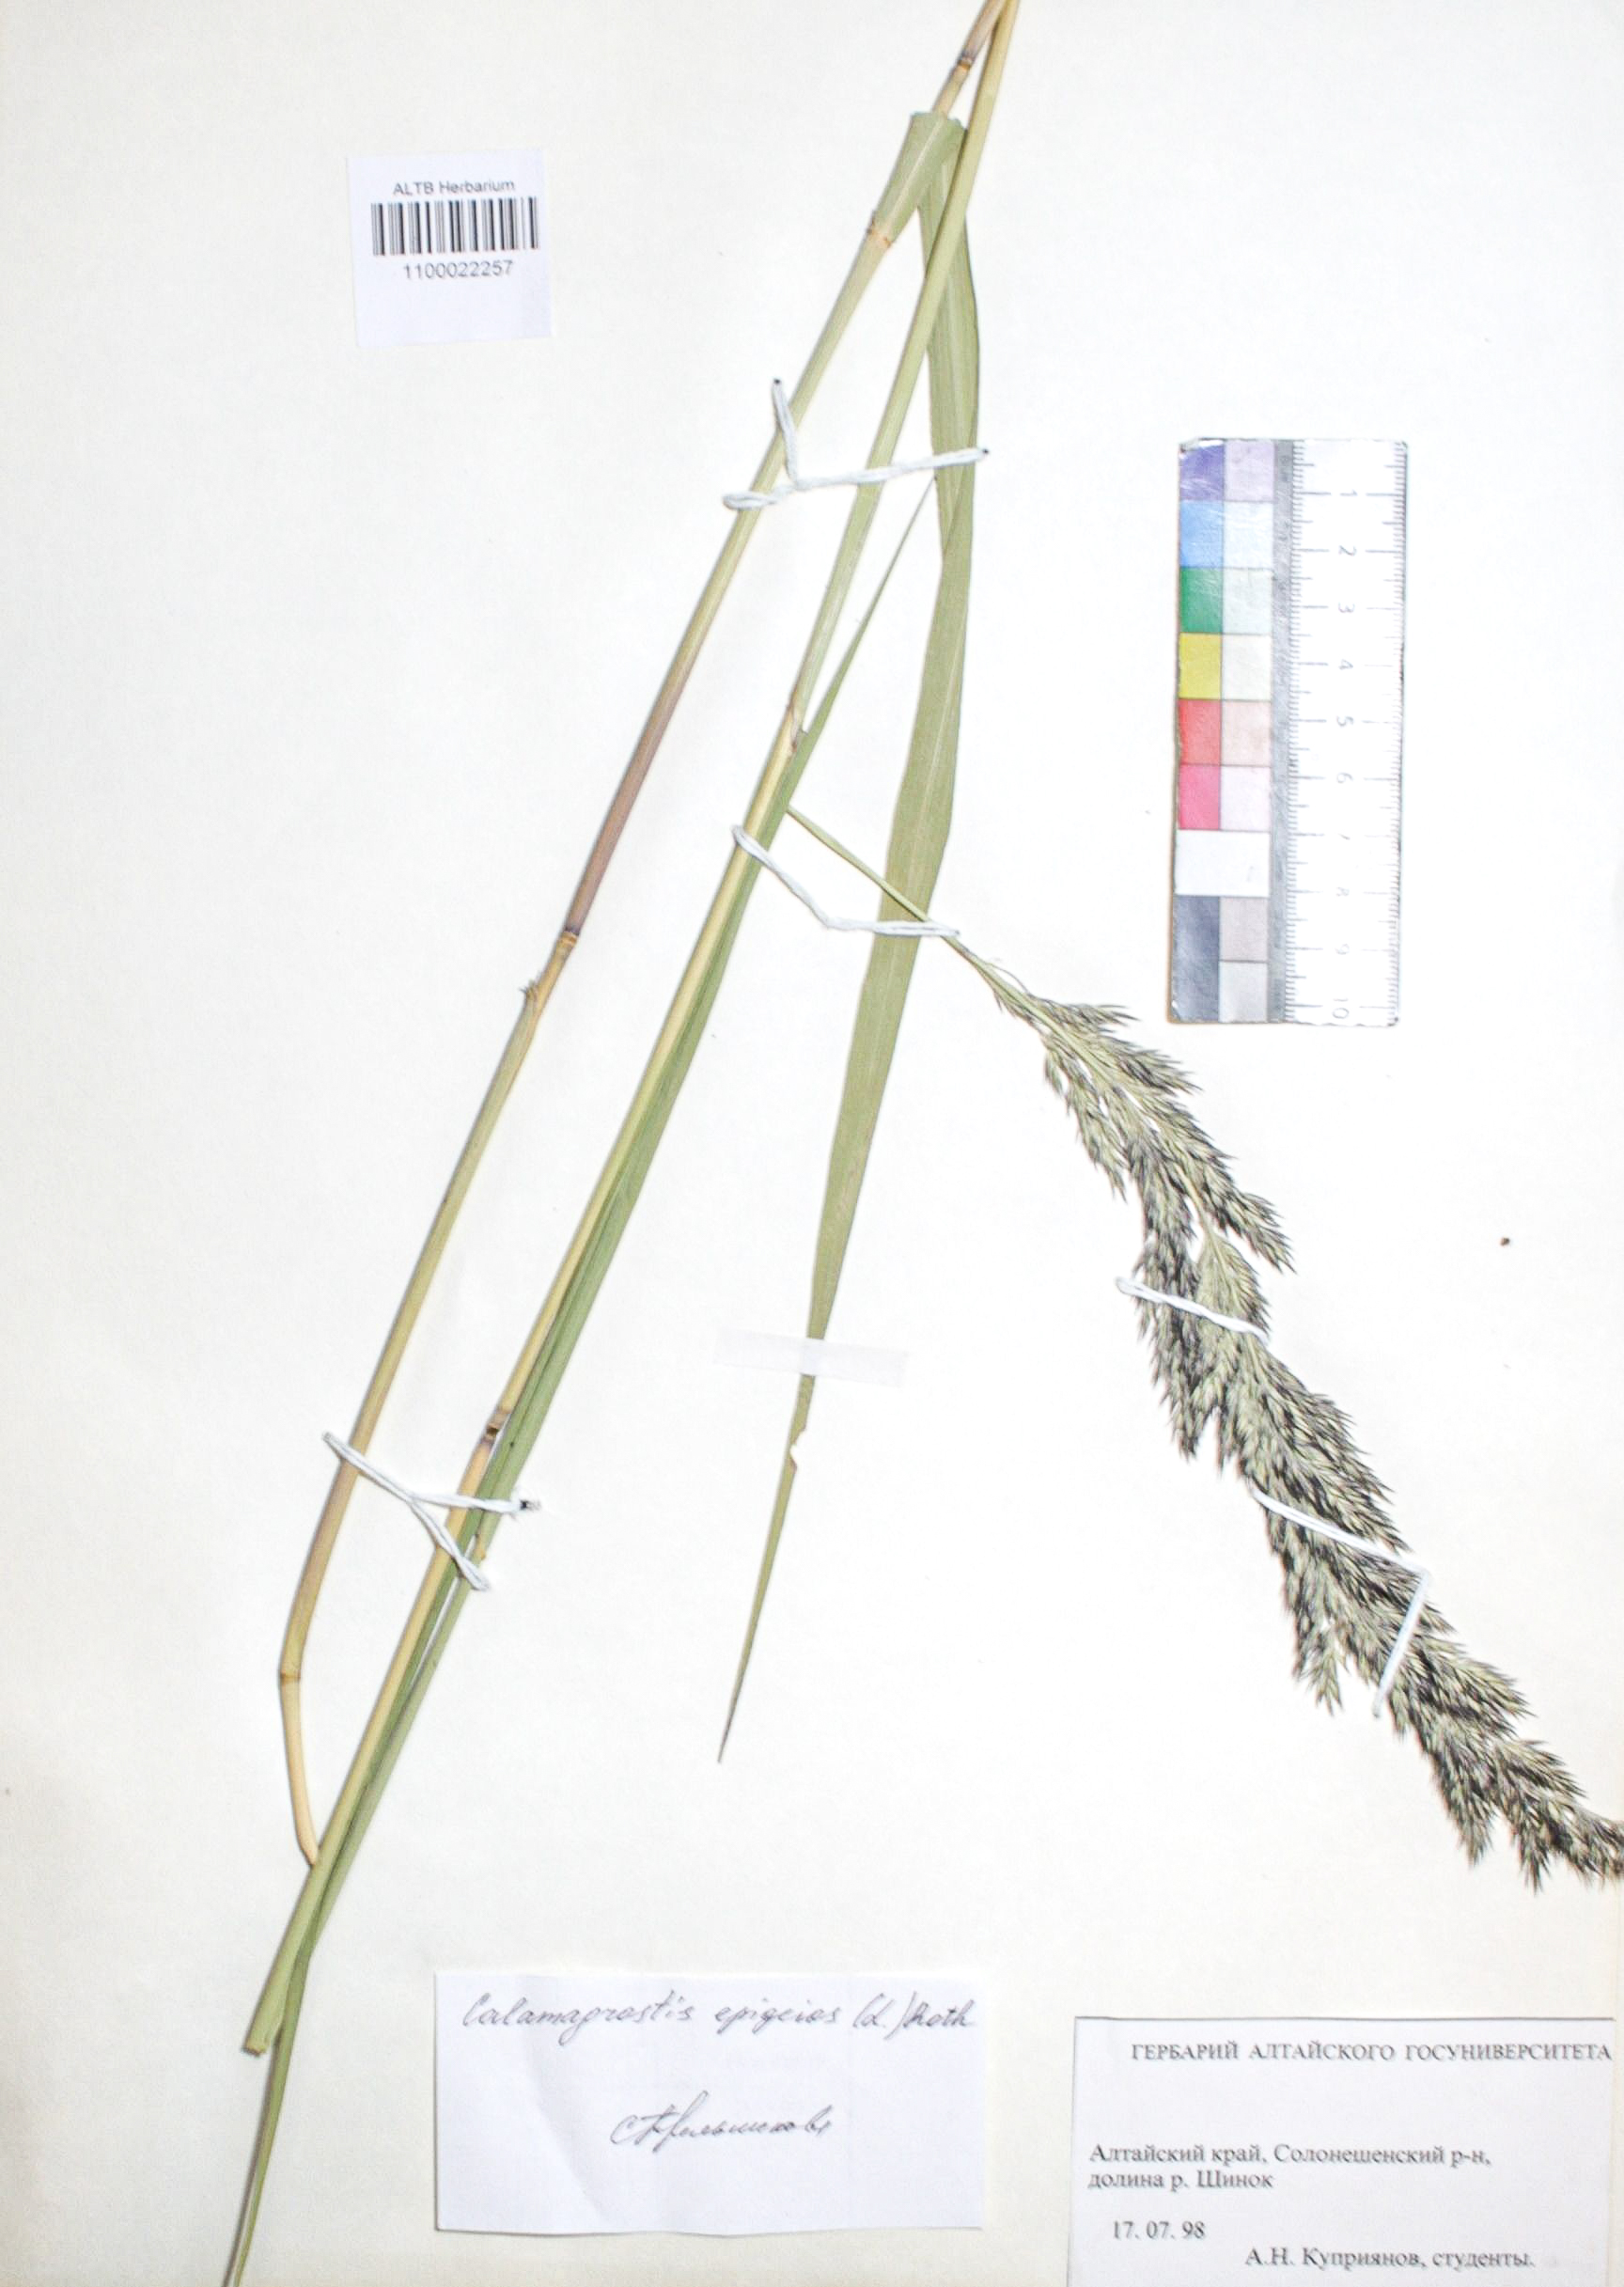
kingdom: Plantae
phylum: Tracheophyta
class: Liliopsida
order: Poales
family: Poaceae
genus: Calamagrostis
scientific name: Calamagrostis epigejos
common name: Wood small-reed
